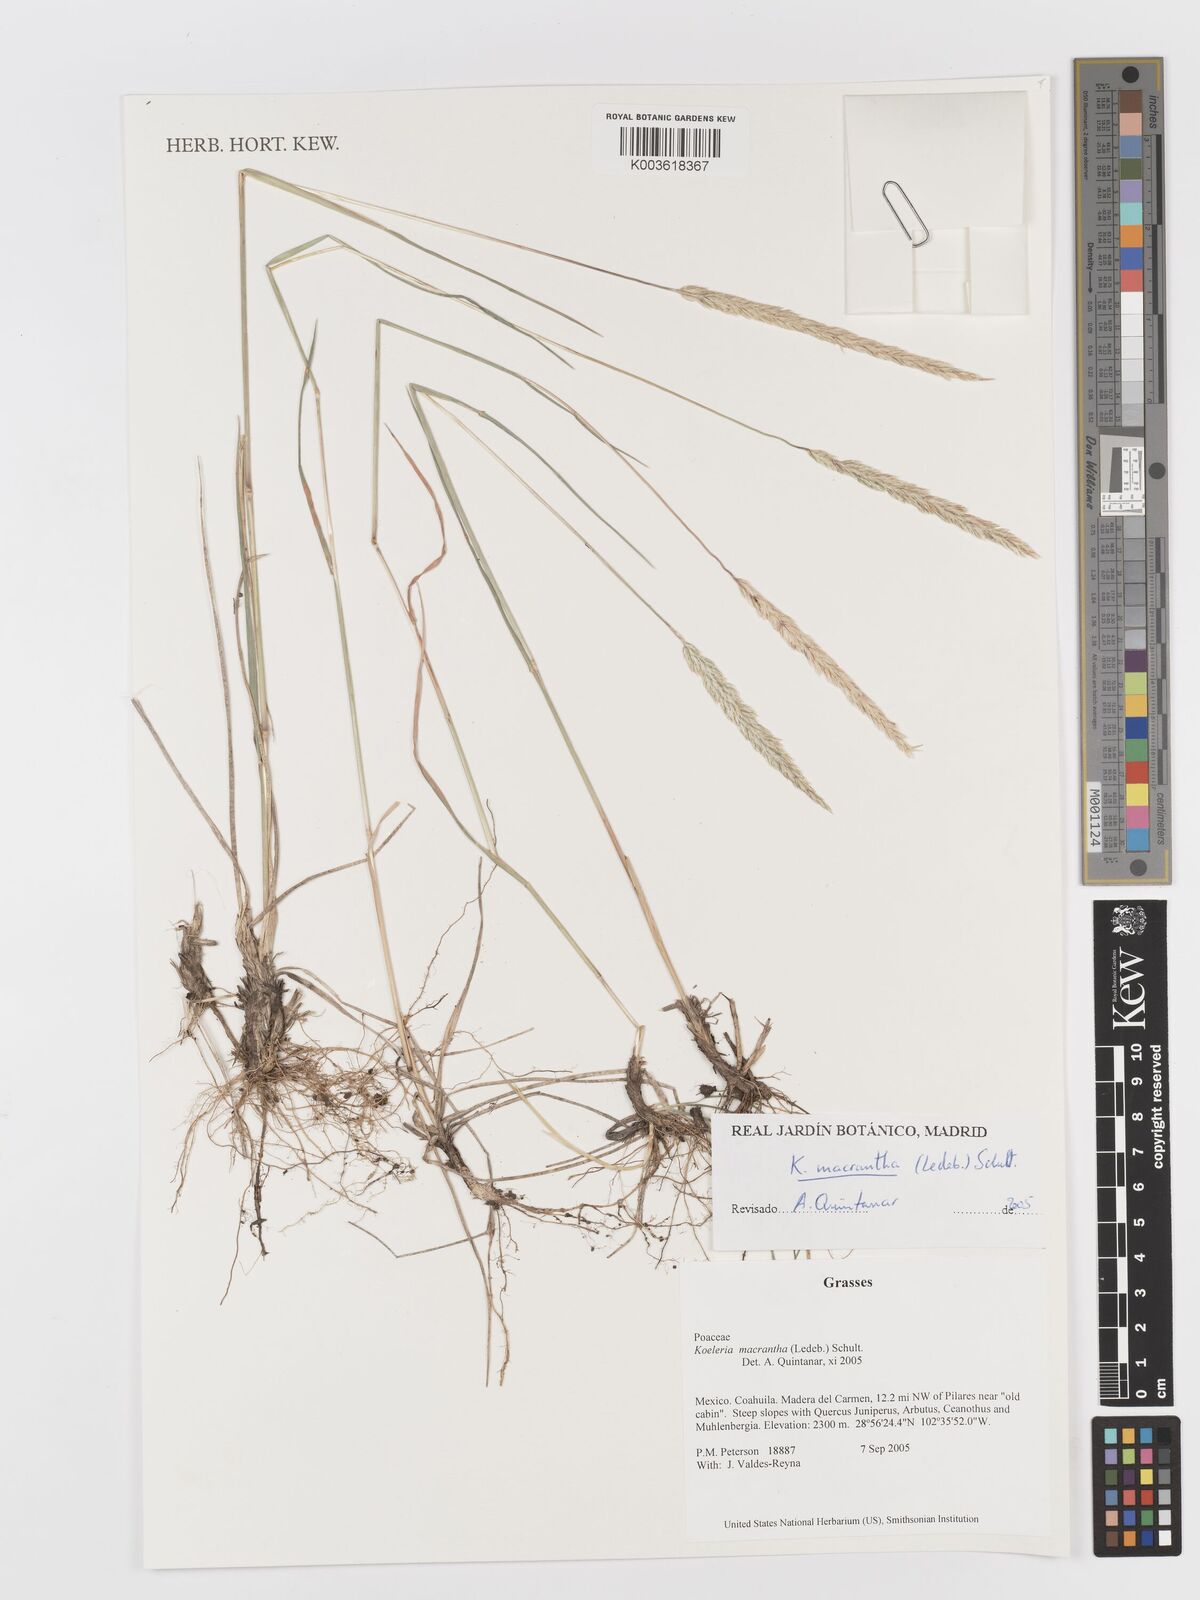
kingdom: Plantae
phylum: Tracheophyta
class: Liliopsida
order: Poales
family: Poaceae
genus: Koeleria
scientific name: Koeleria pyramidata
